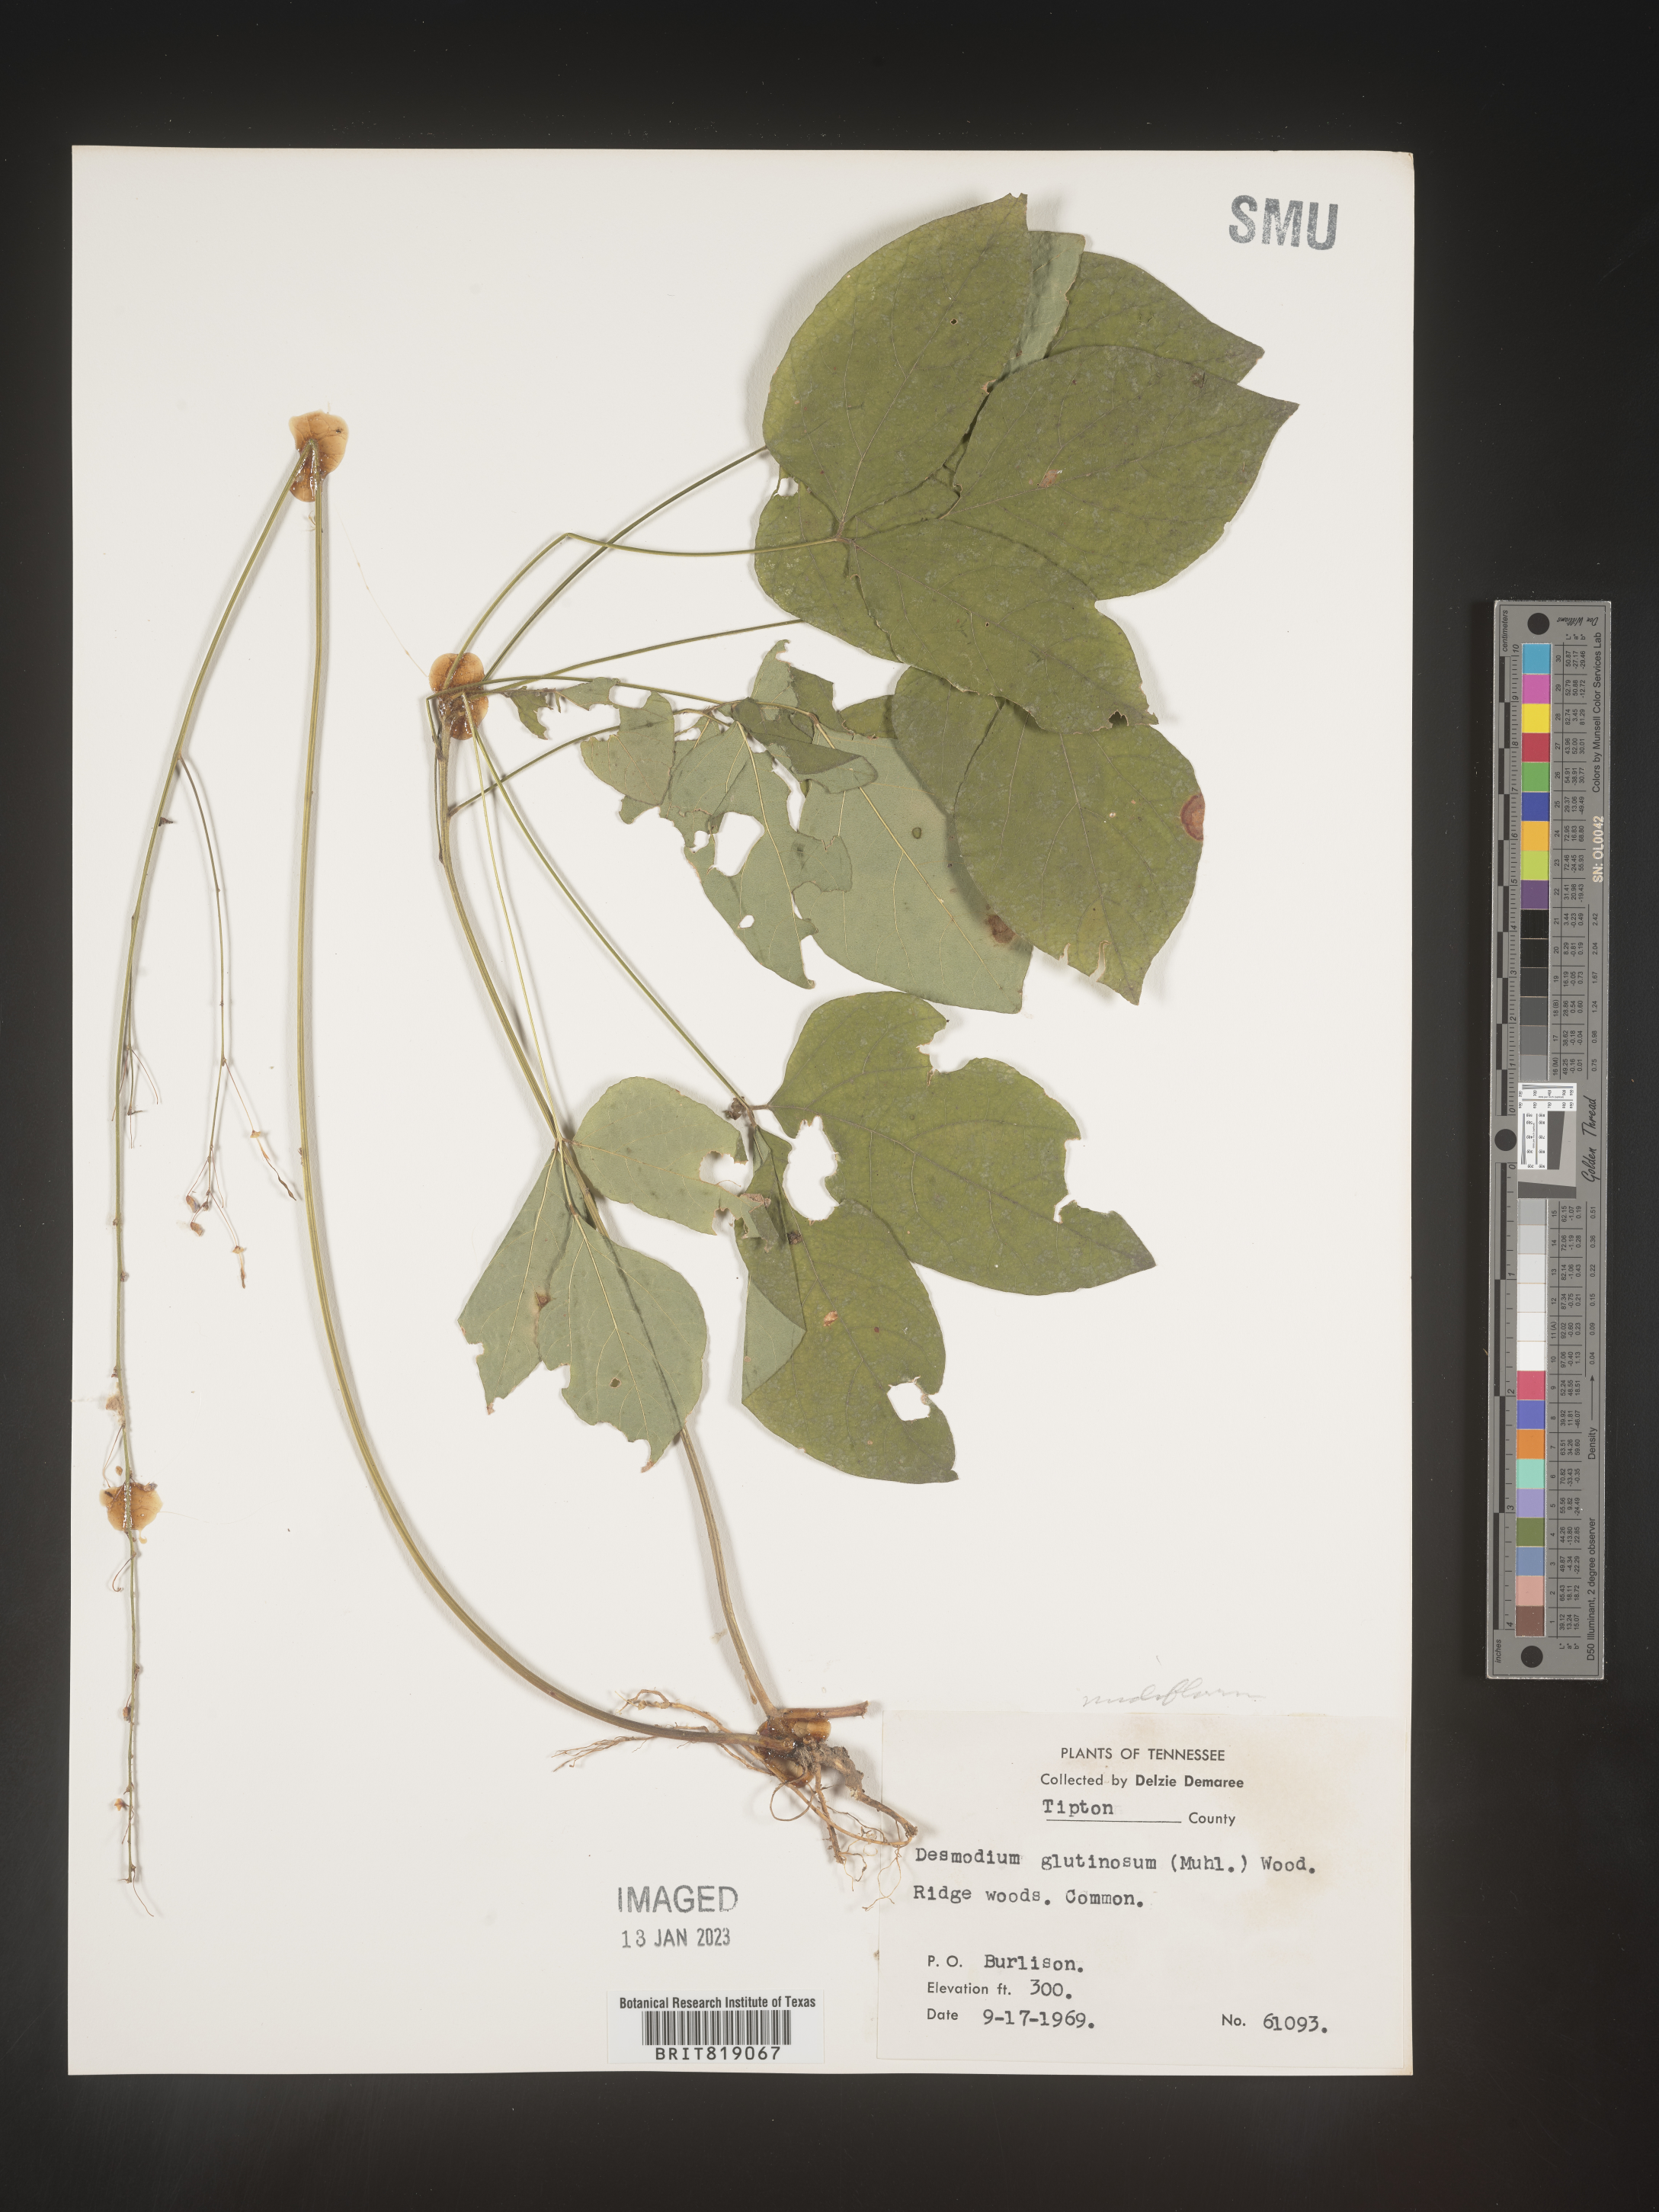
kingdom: Plantae
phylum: Tracheophyta
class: Magnoliopsida
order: Fabales
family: Fabaceae
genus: Hylodesmum
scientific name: Hylodesmum nudiflorum
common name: Bare-stemmed tick-trefoil
